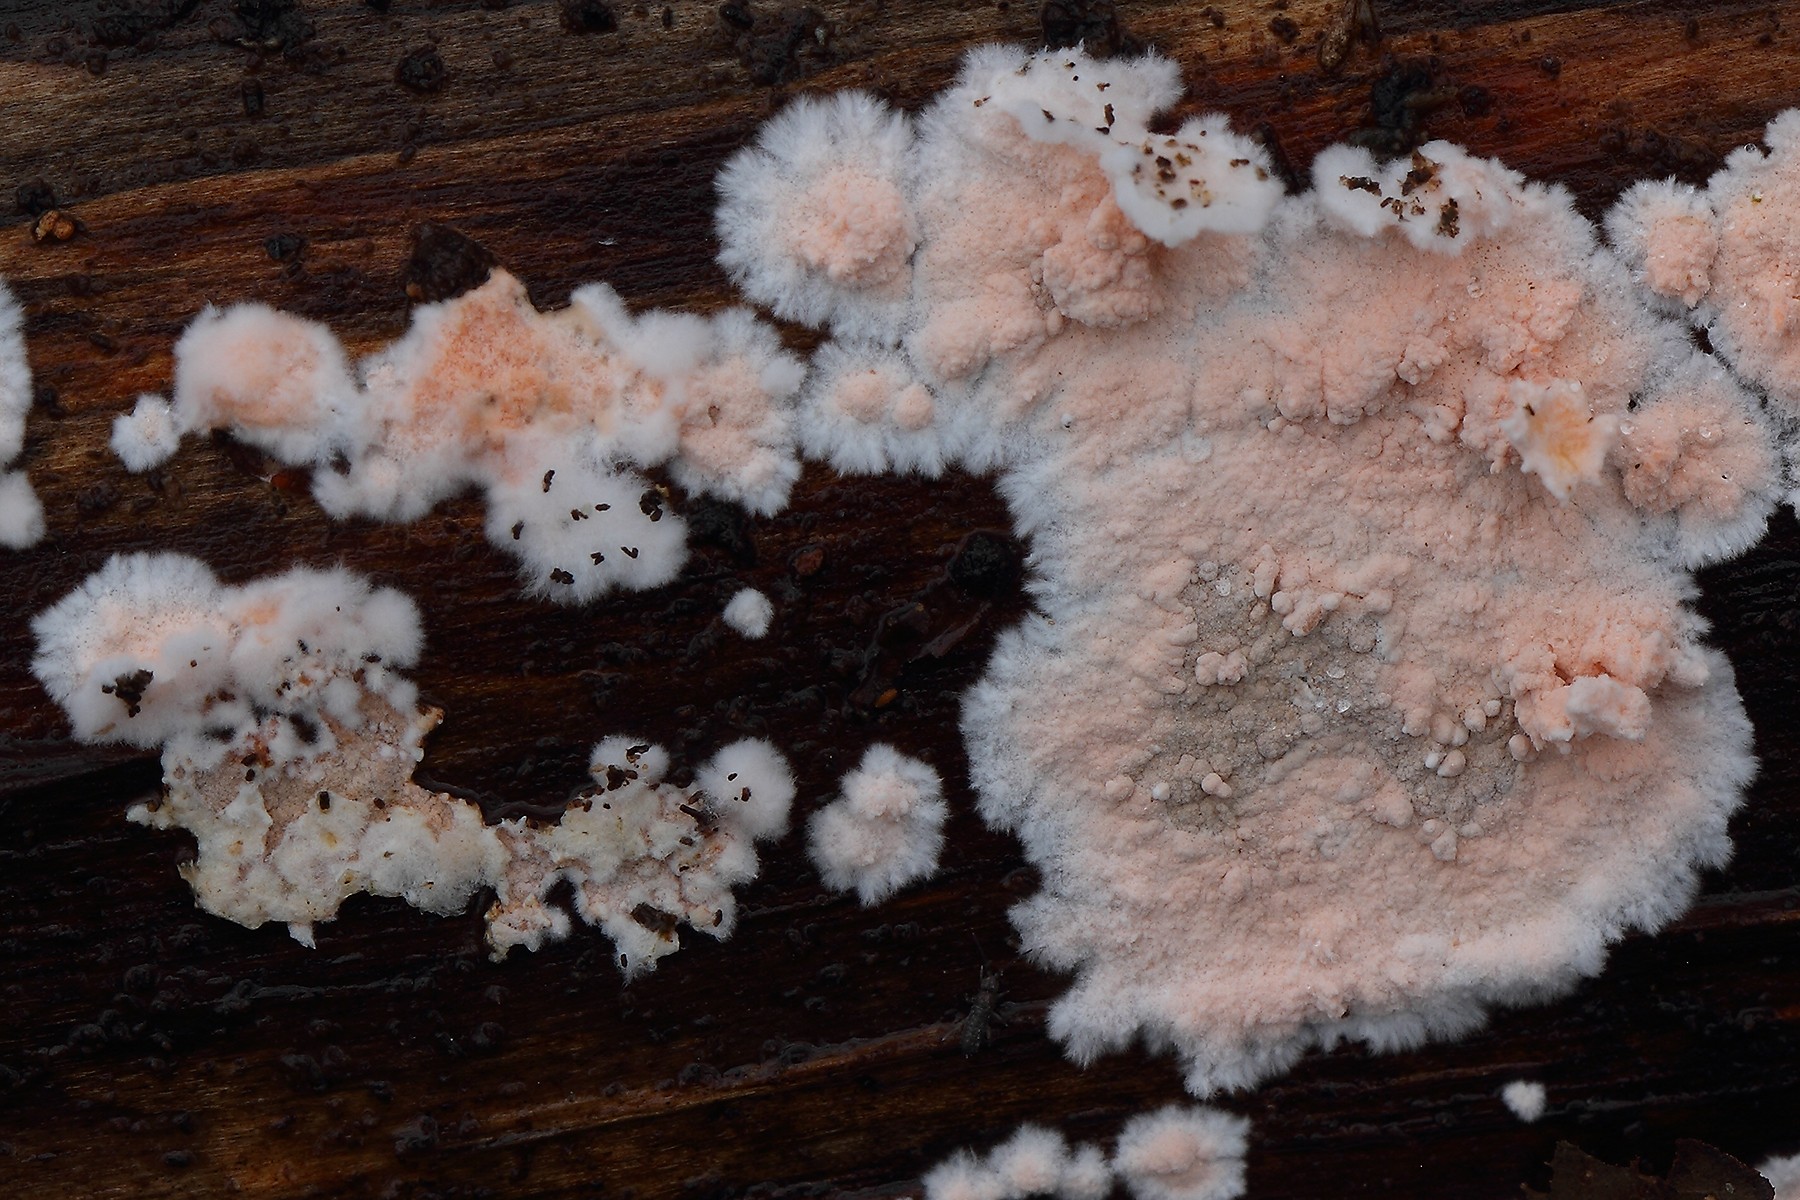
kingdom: Fungi
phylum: Basidiomycota
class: Agaricomycetes
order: Corticiales
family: Corticiaceae
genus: Corticium
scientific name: Corticium roseum
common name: rosa barkskind
